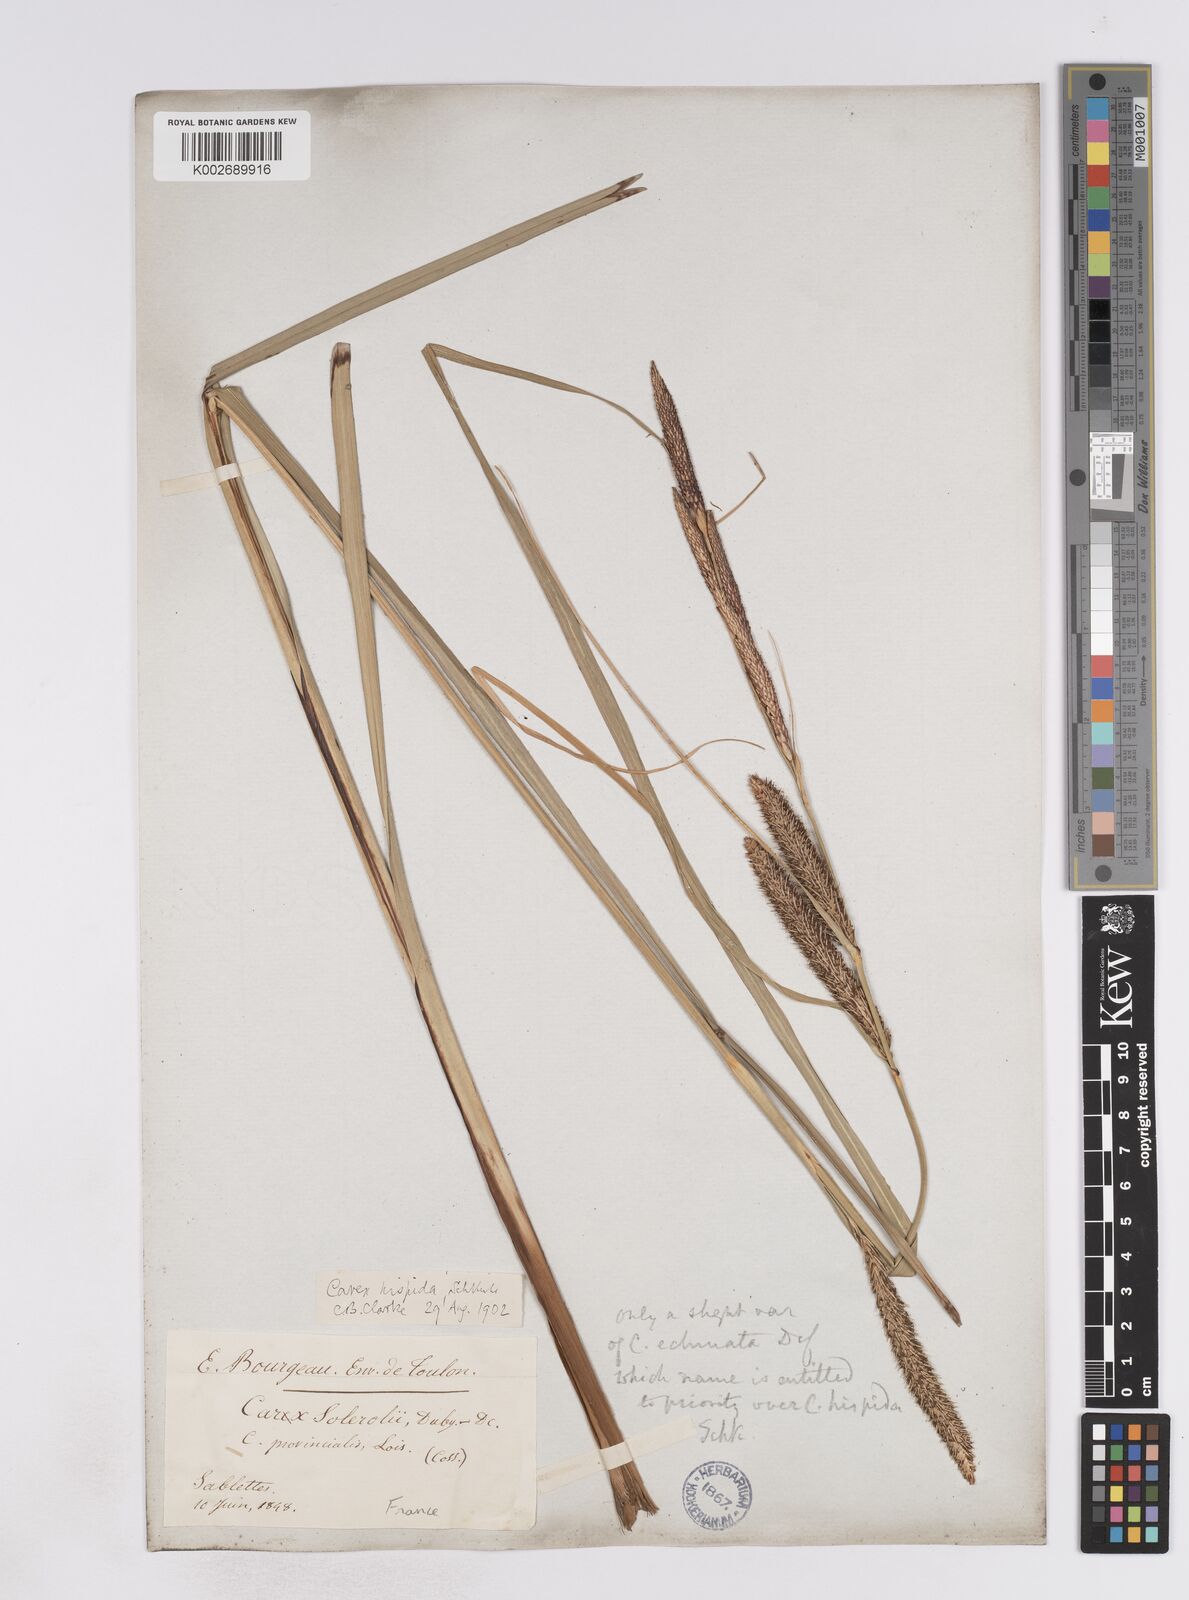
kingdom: Plantae
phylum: Tracheophyta
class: Liliopsida
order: Poales
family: Cyperaceae
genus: Carex
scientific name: Carex hispida
